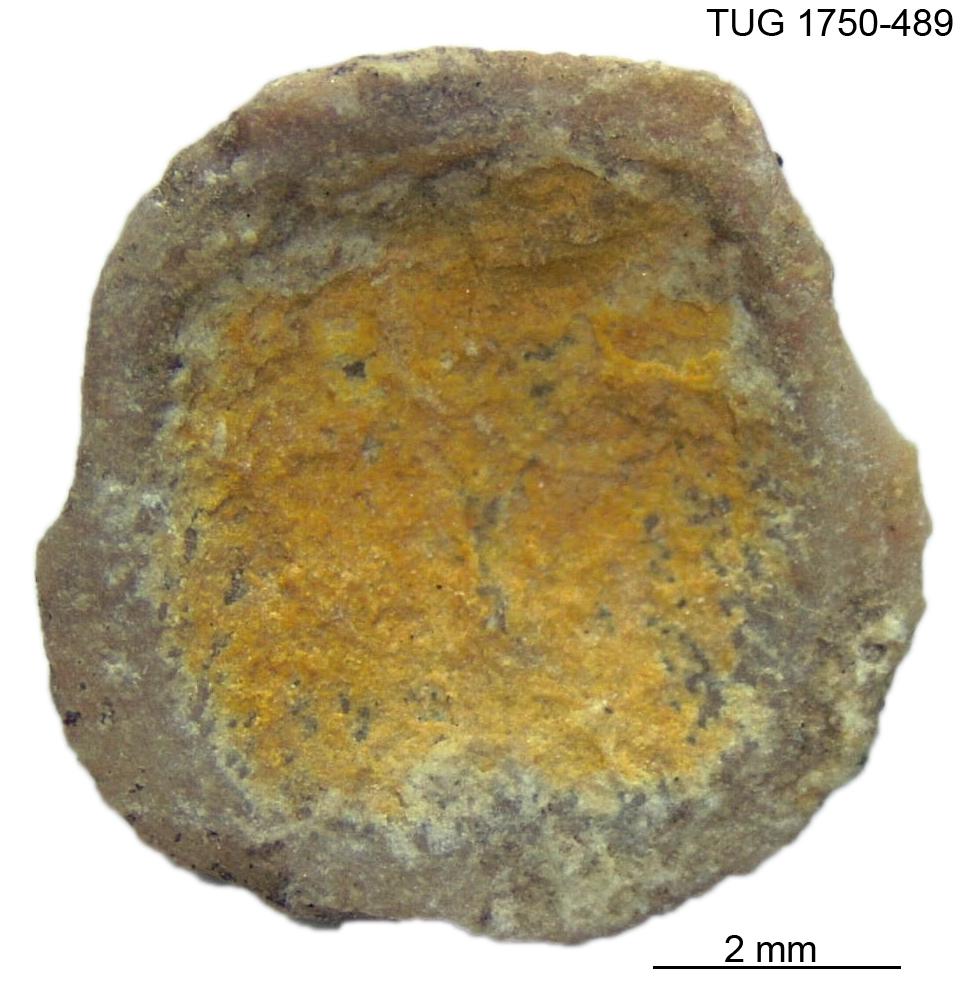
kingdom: Animalia
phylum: Brachiopoda
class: Craniata
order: Craniida
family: Craniidae
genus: Orthisocrania
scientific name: Orthisocrania
